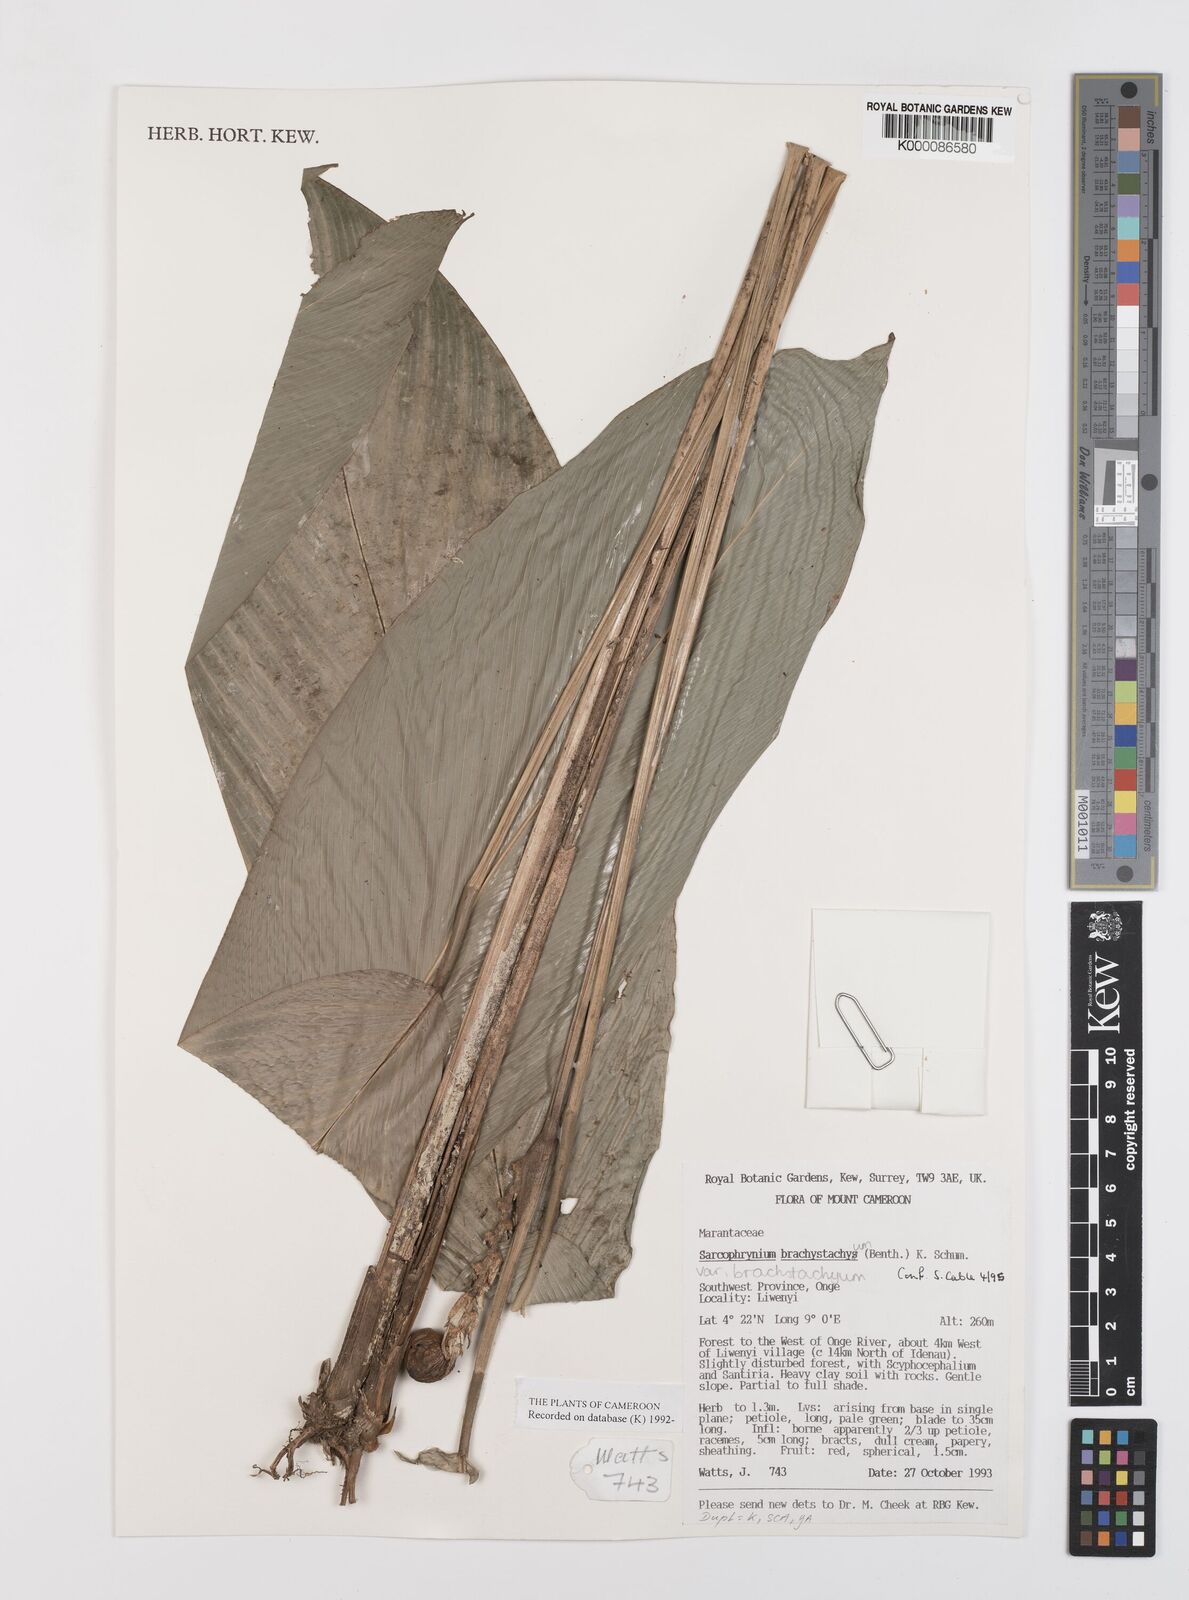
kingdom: Plantae
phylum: Tracheophyta
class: Liliopsida
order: Zingiberales
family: Marantaceae
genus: Sarcophrynium
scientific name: Sarcophrynium
